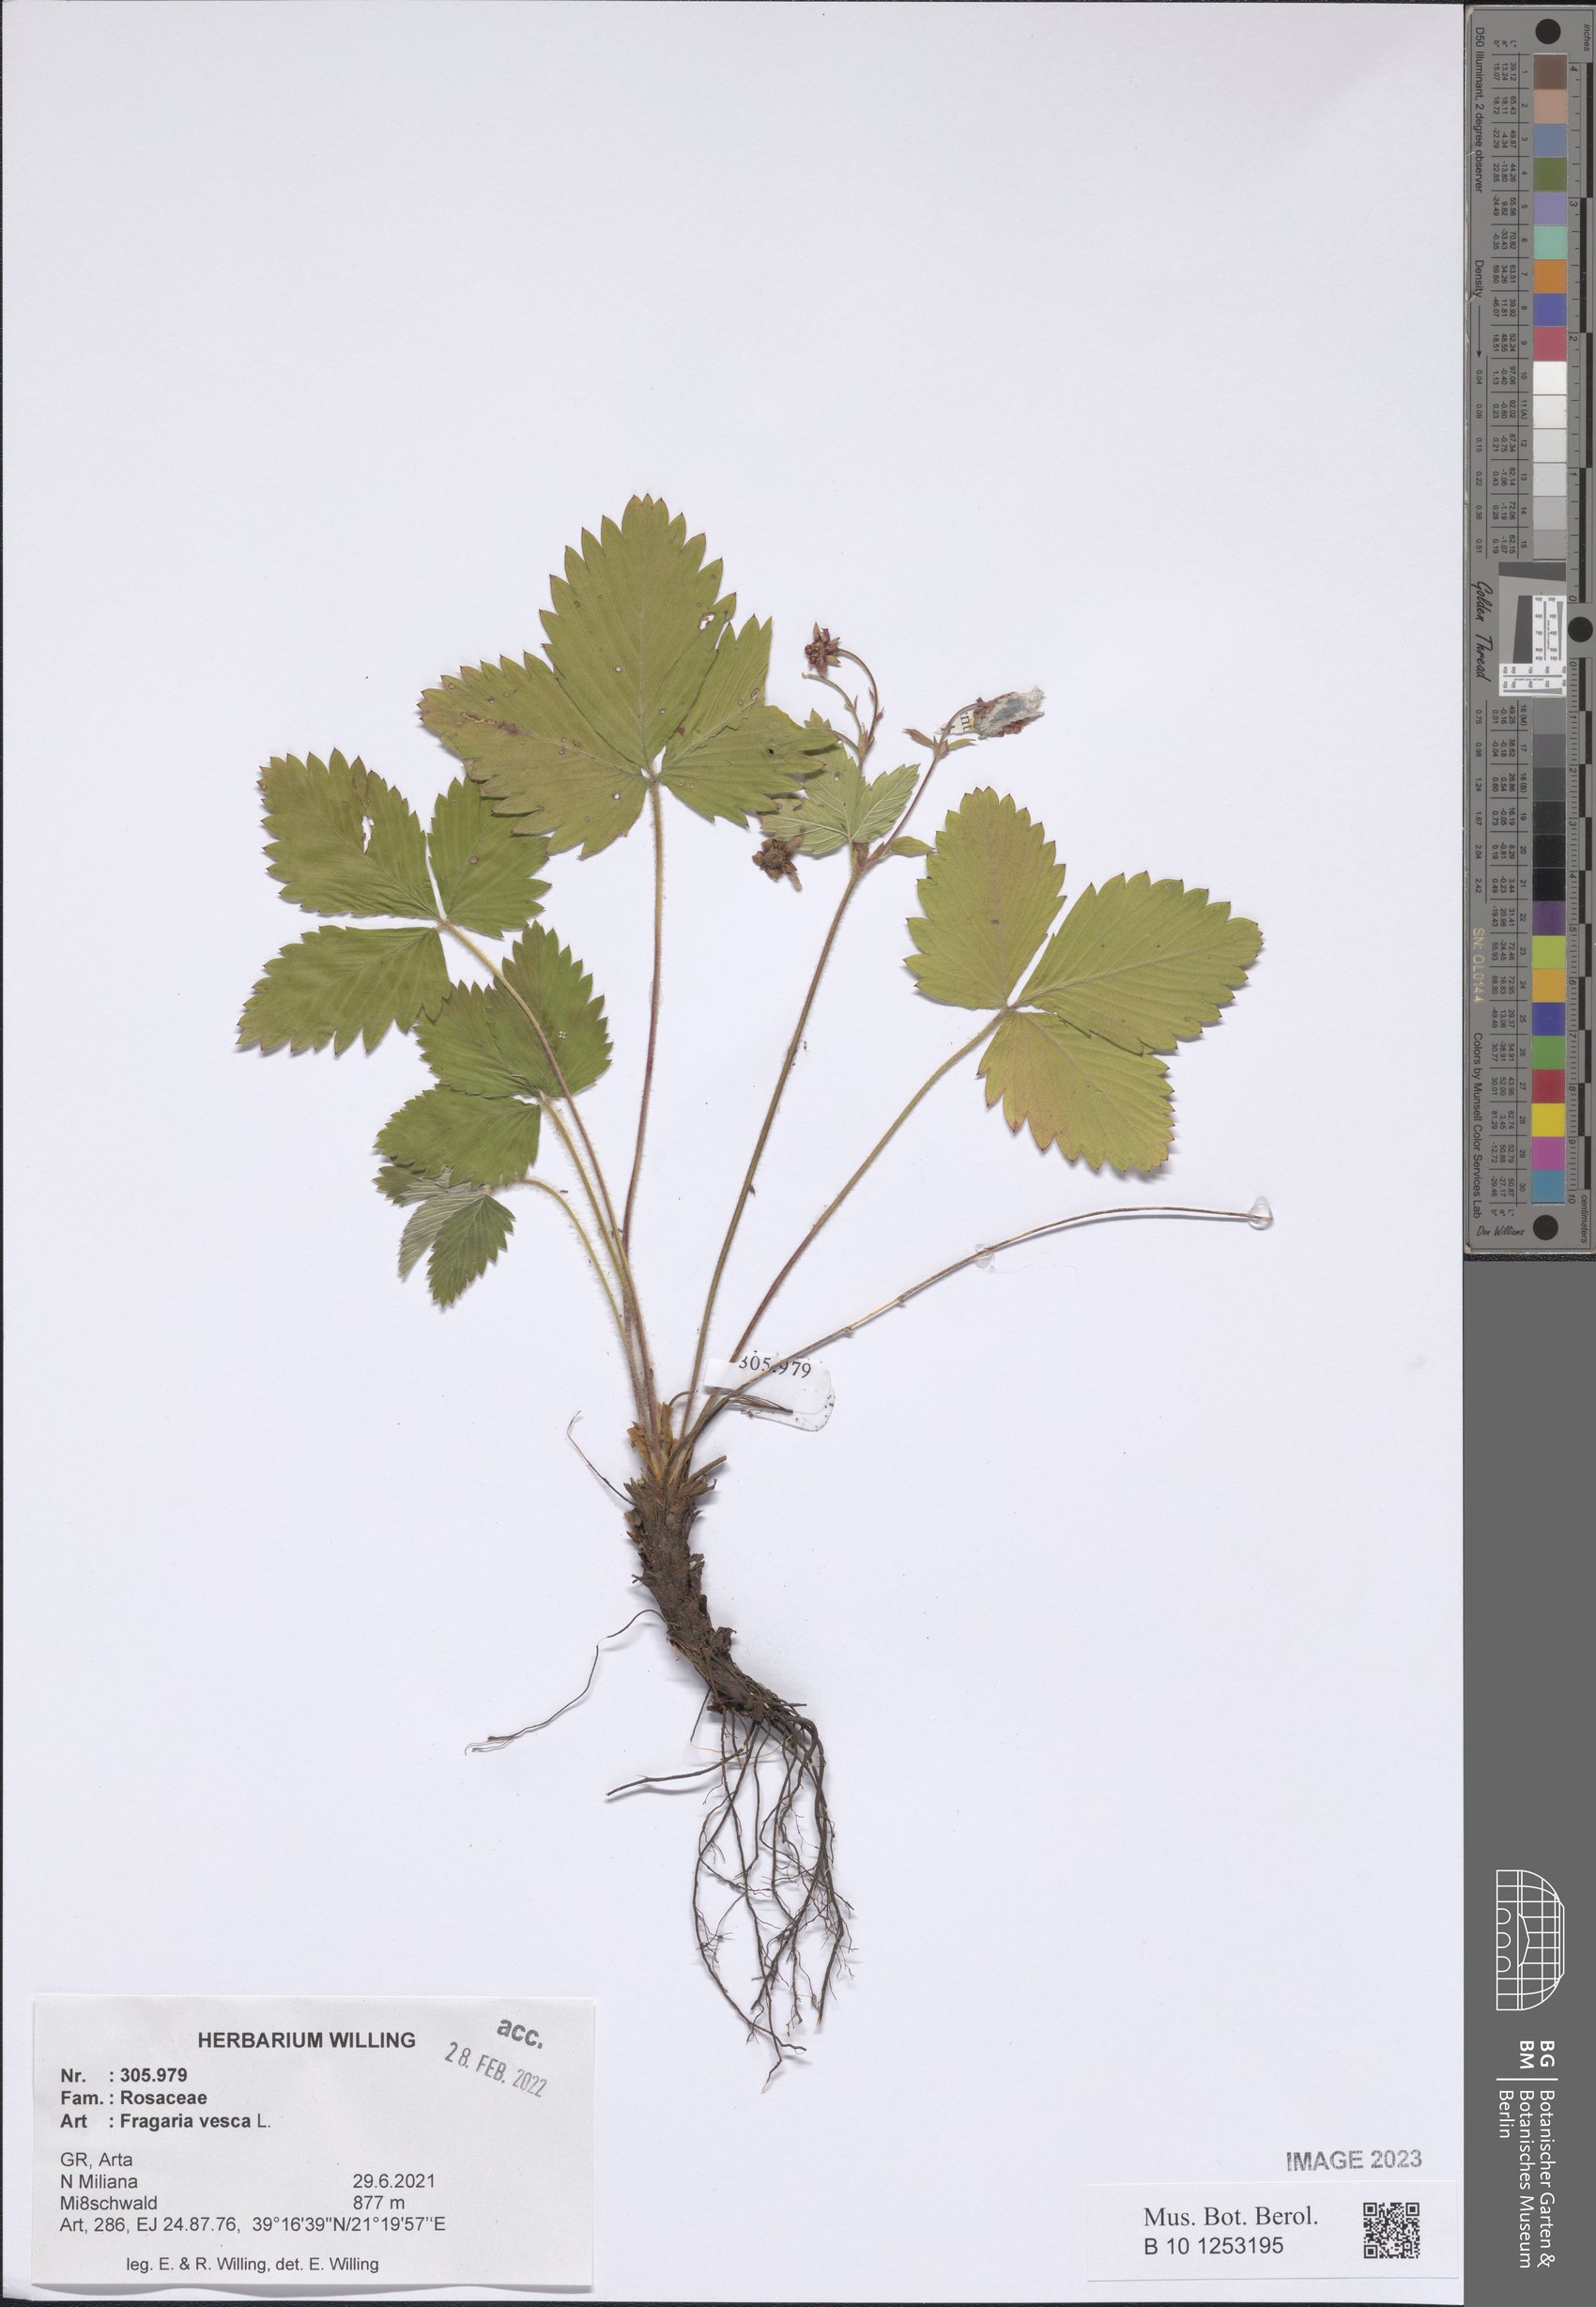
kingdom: Plantae
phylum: Tracheophyta
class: Magnoliopsida
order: Rosales
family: Rosaceae
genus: Fragaria
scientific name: Fragaria vesca
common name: Wild strawberry
